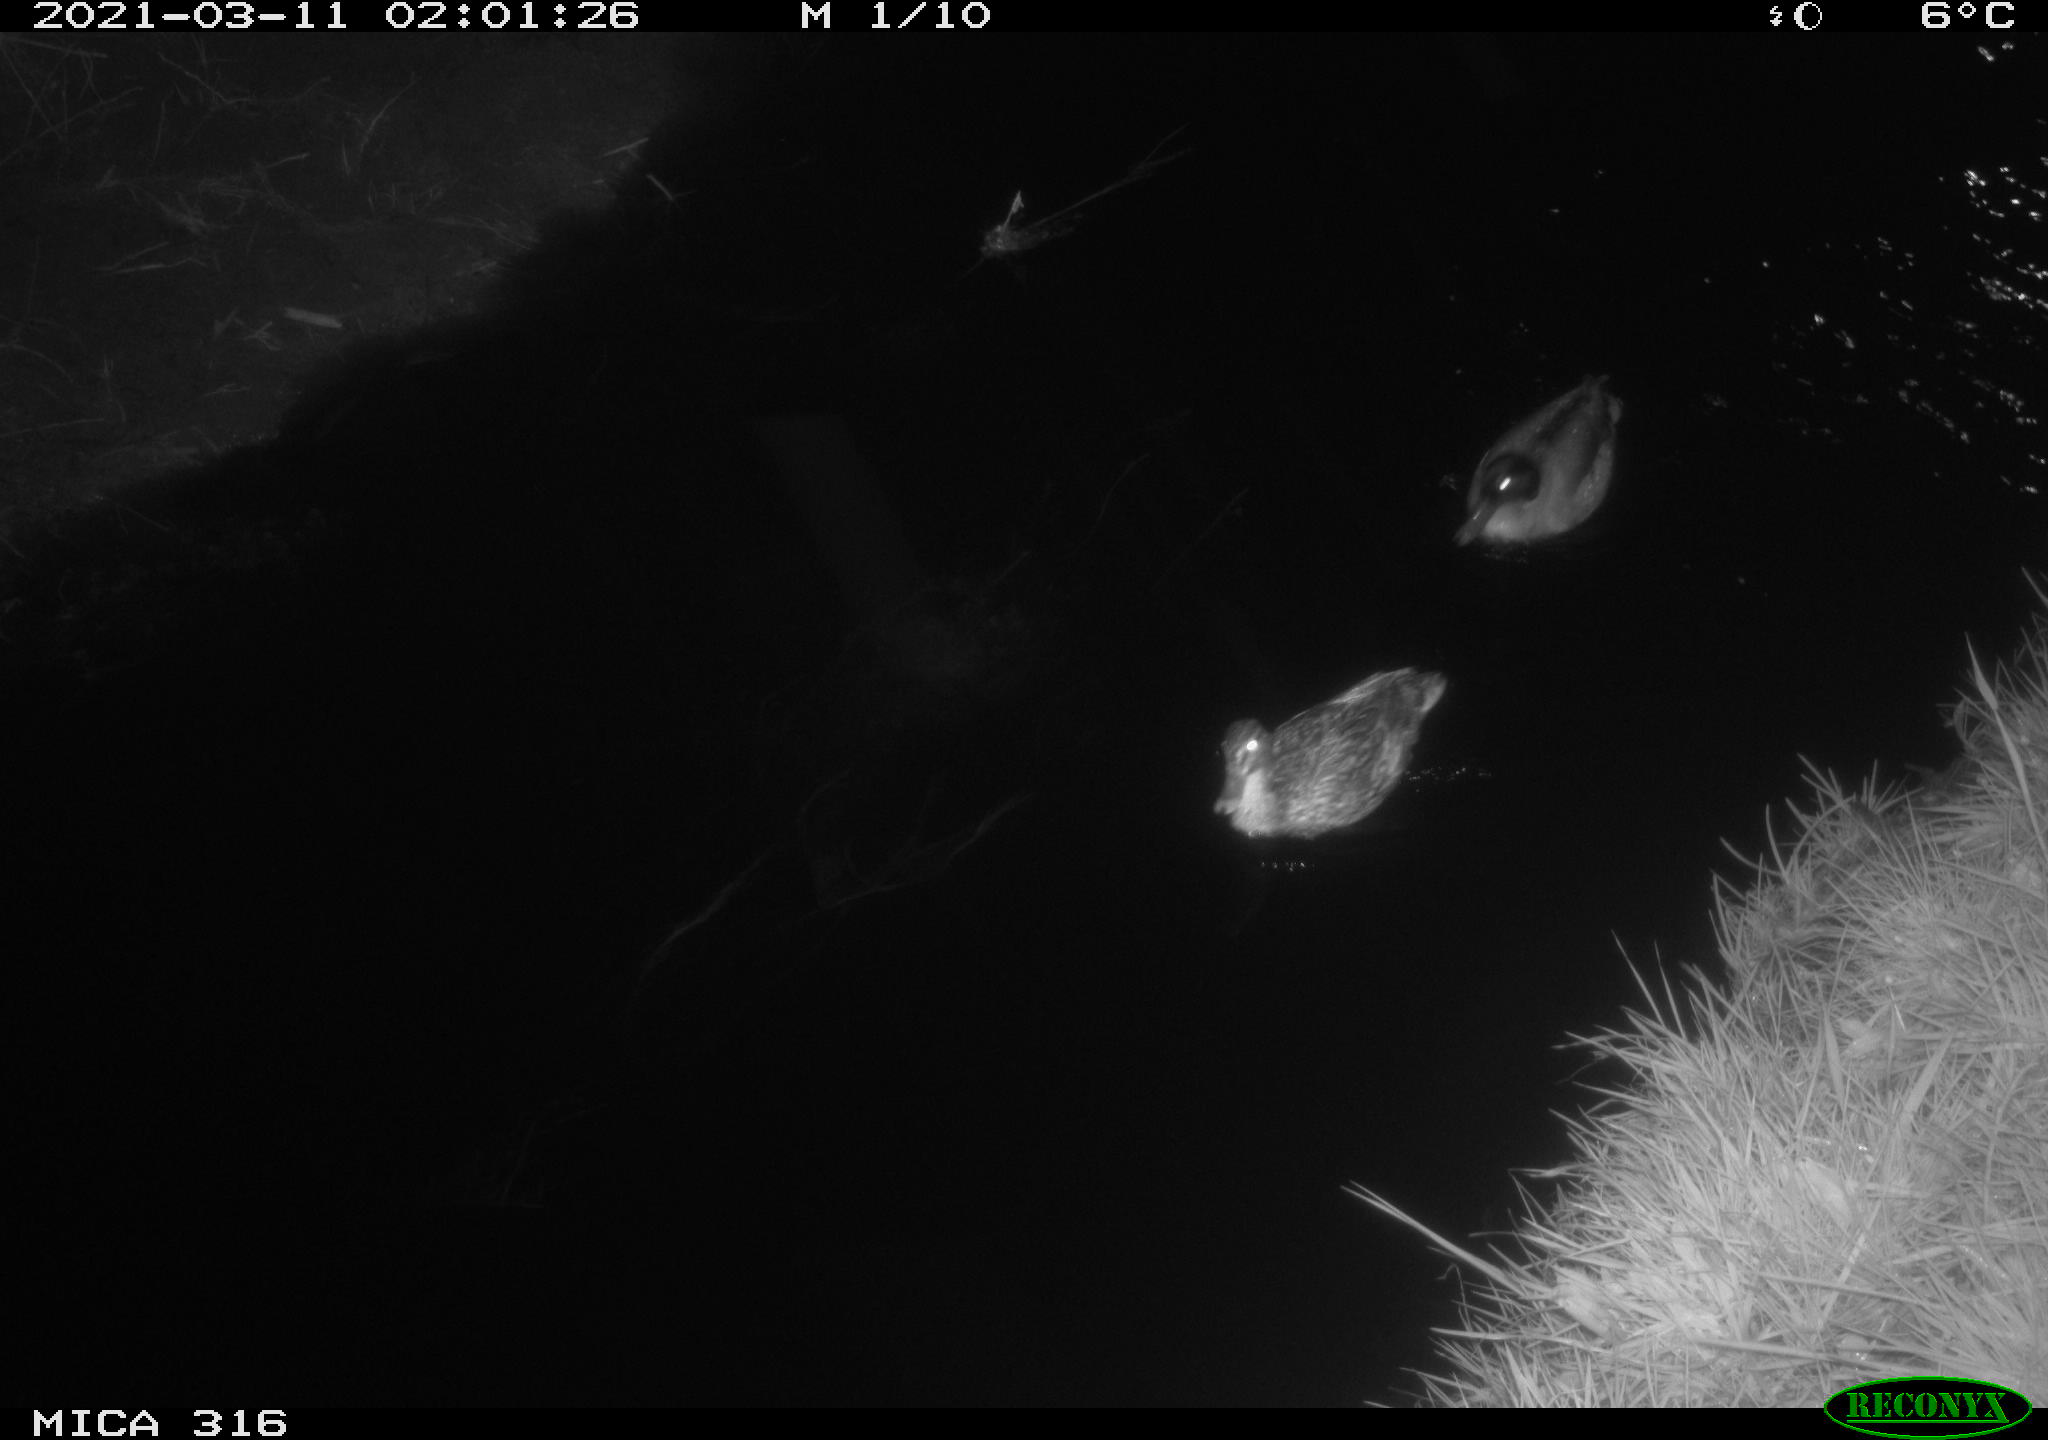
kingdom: Animalia
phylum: Chordata
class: Aves
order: Anseriformes
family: Anatidae
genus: Anas
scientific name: Anas platyrhynchos
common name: Mallard
